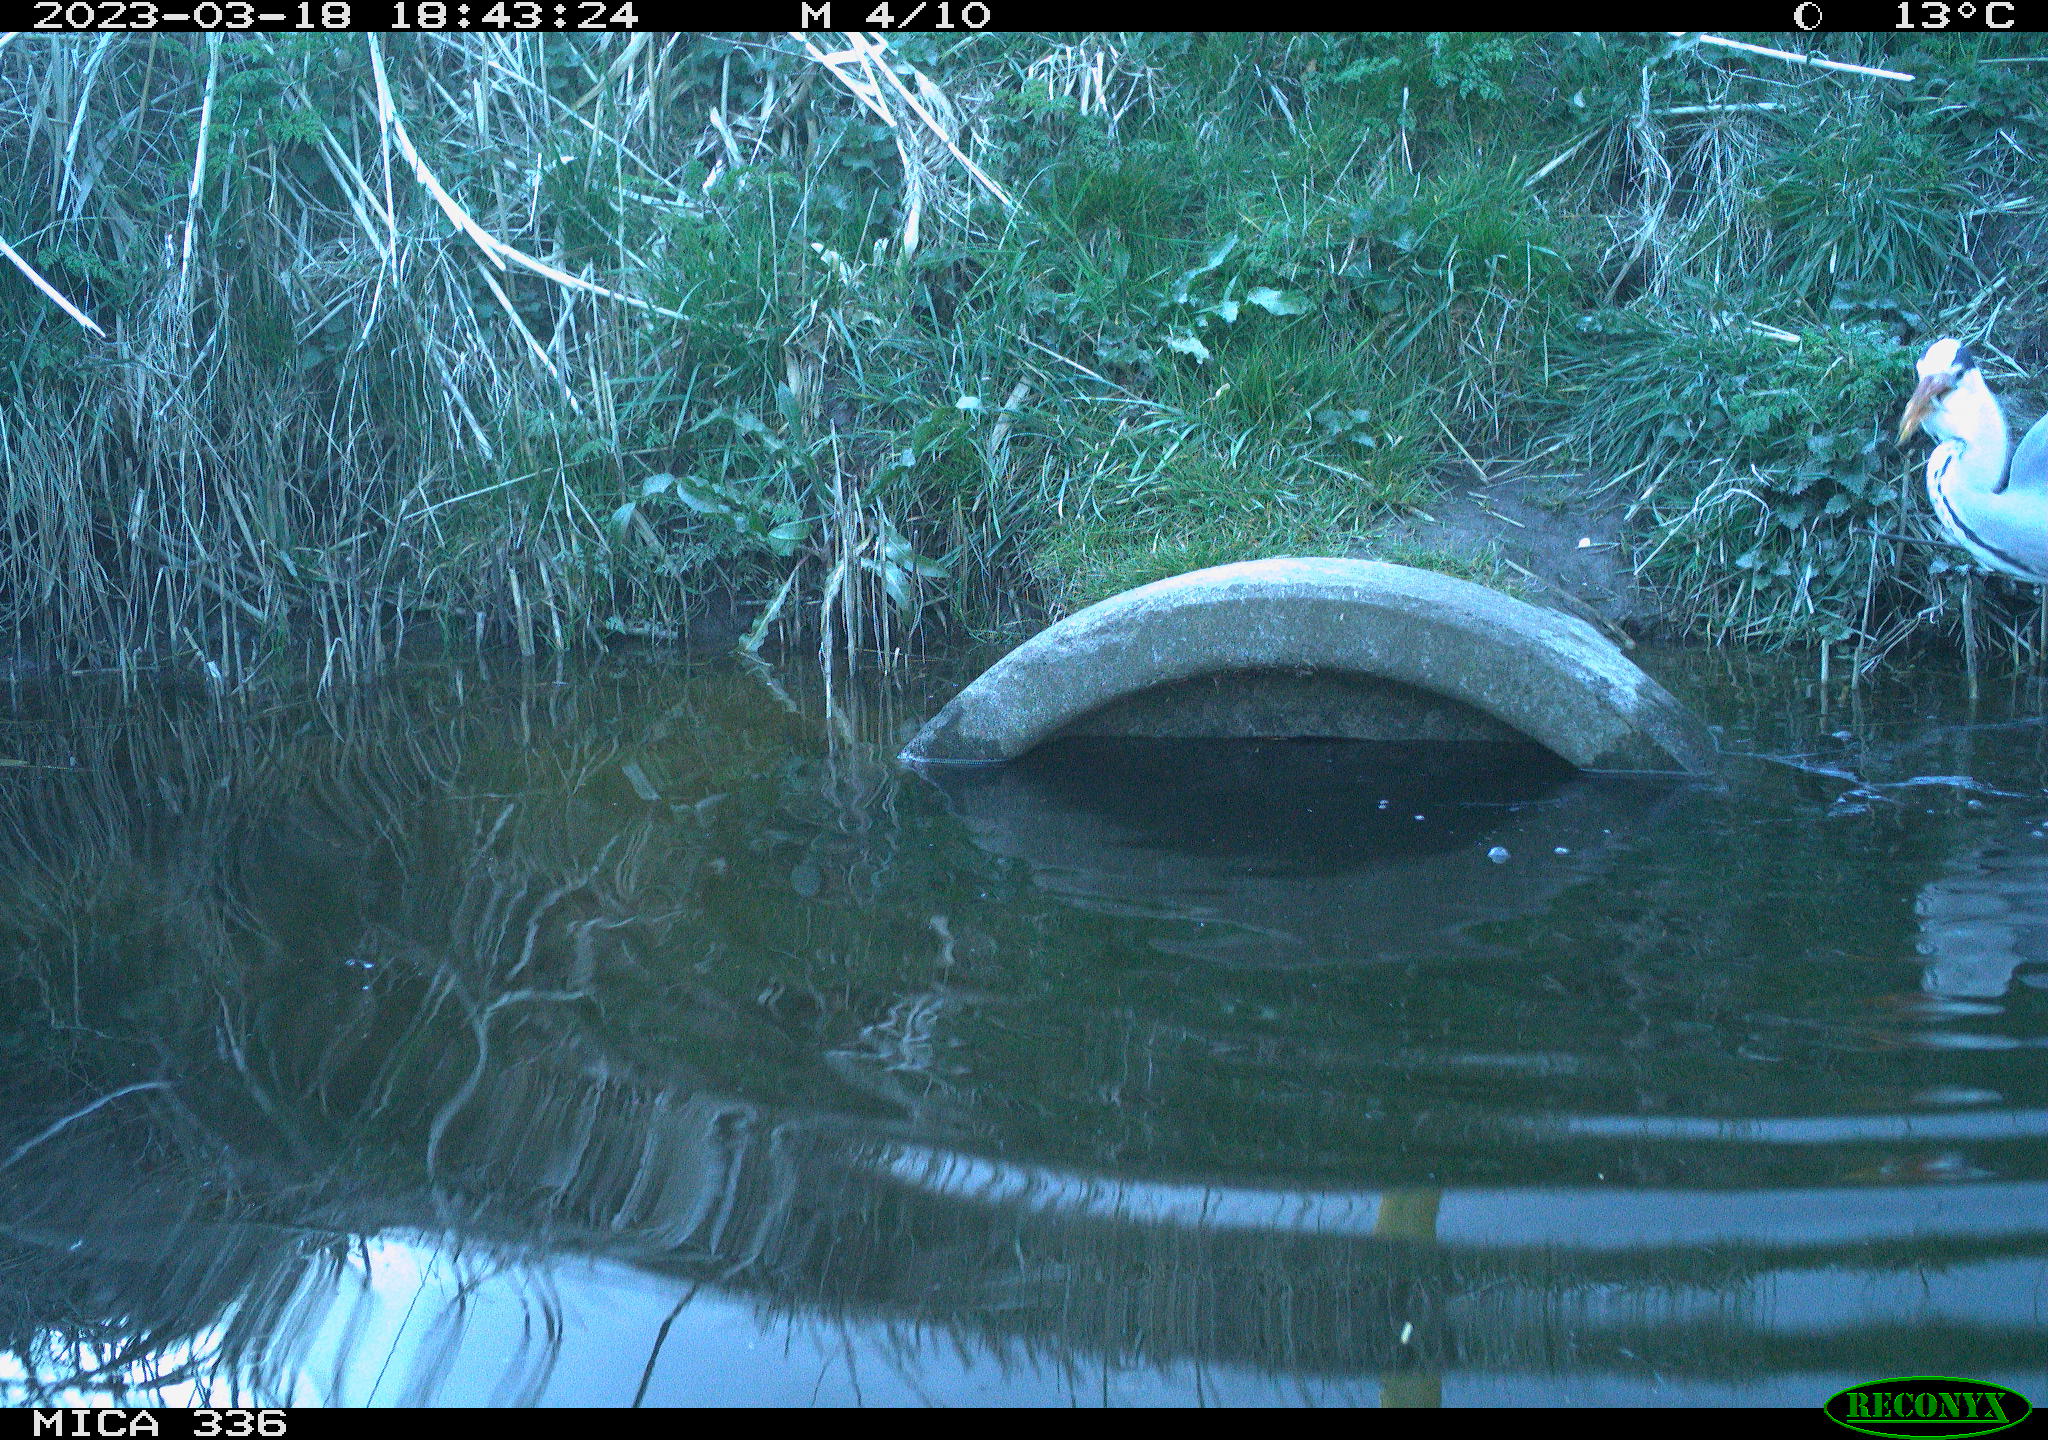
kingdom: Animalia
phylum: Chordata
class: Aves
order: Pelecaniformes
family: Ardeidae
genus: Ardea
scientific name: Ardea cinerea
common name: Grey heron
